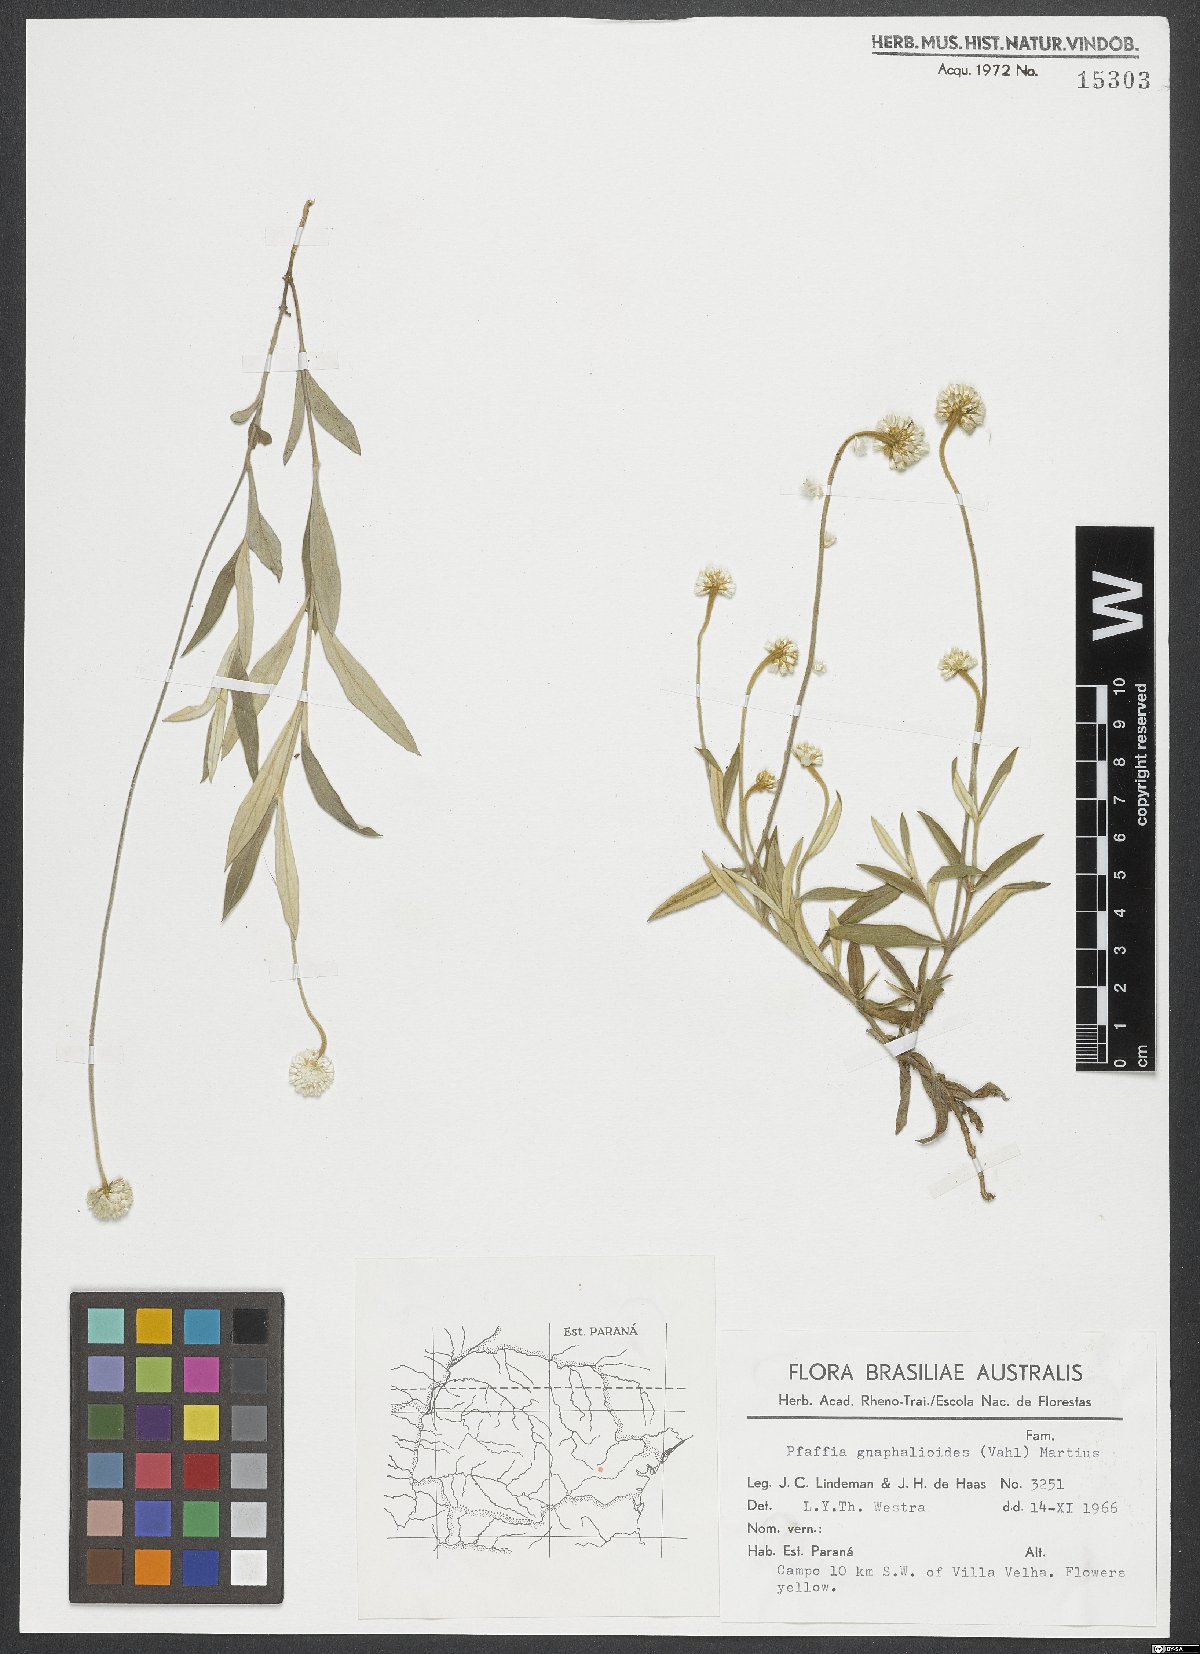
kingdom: Plantae
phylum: Tracheophyta
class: Magnoliopsida
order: Caryophyllales
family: Amaranthaceae
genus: Pfaffia
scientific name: Pfaffia gnaphaloides
